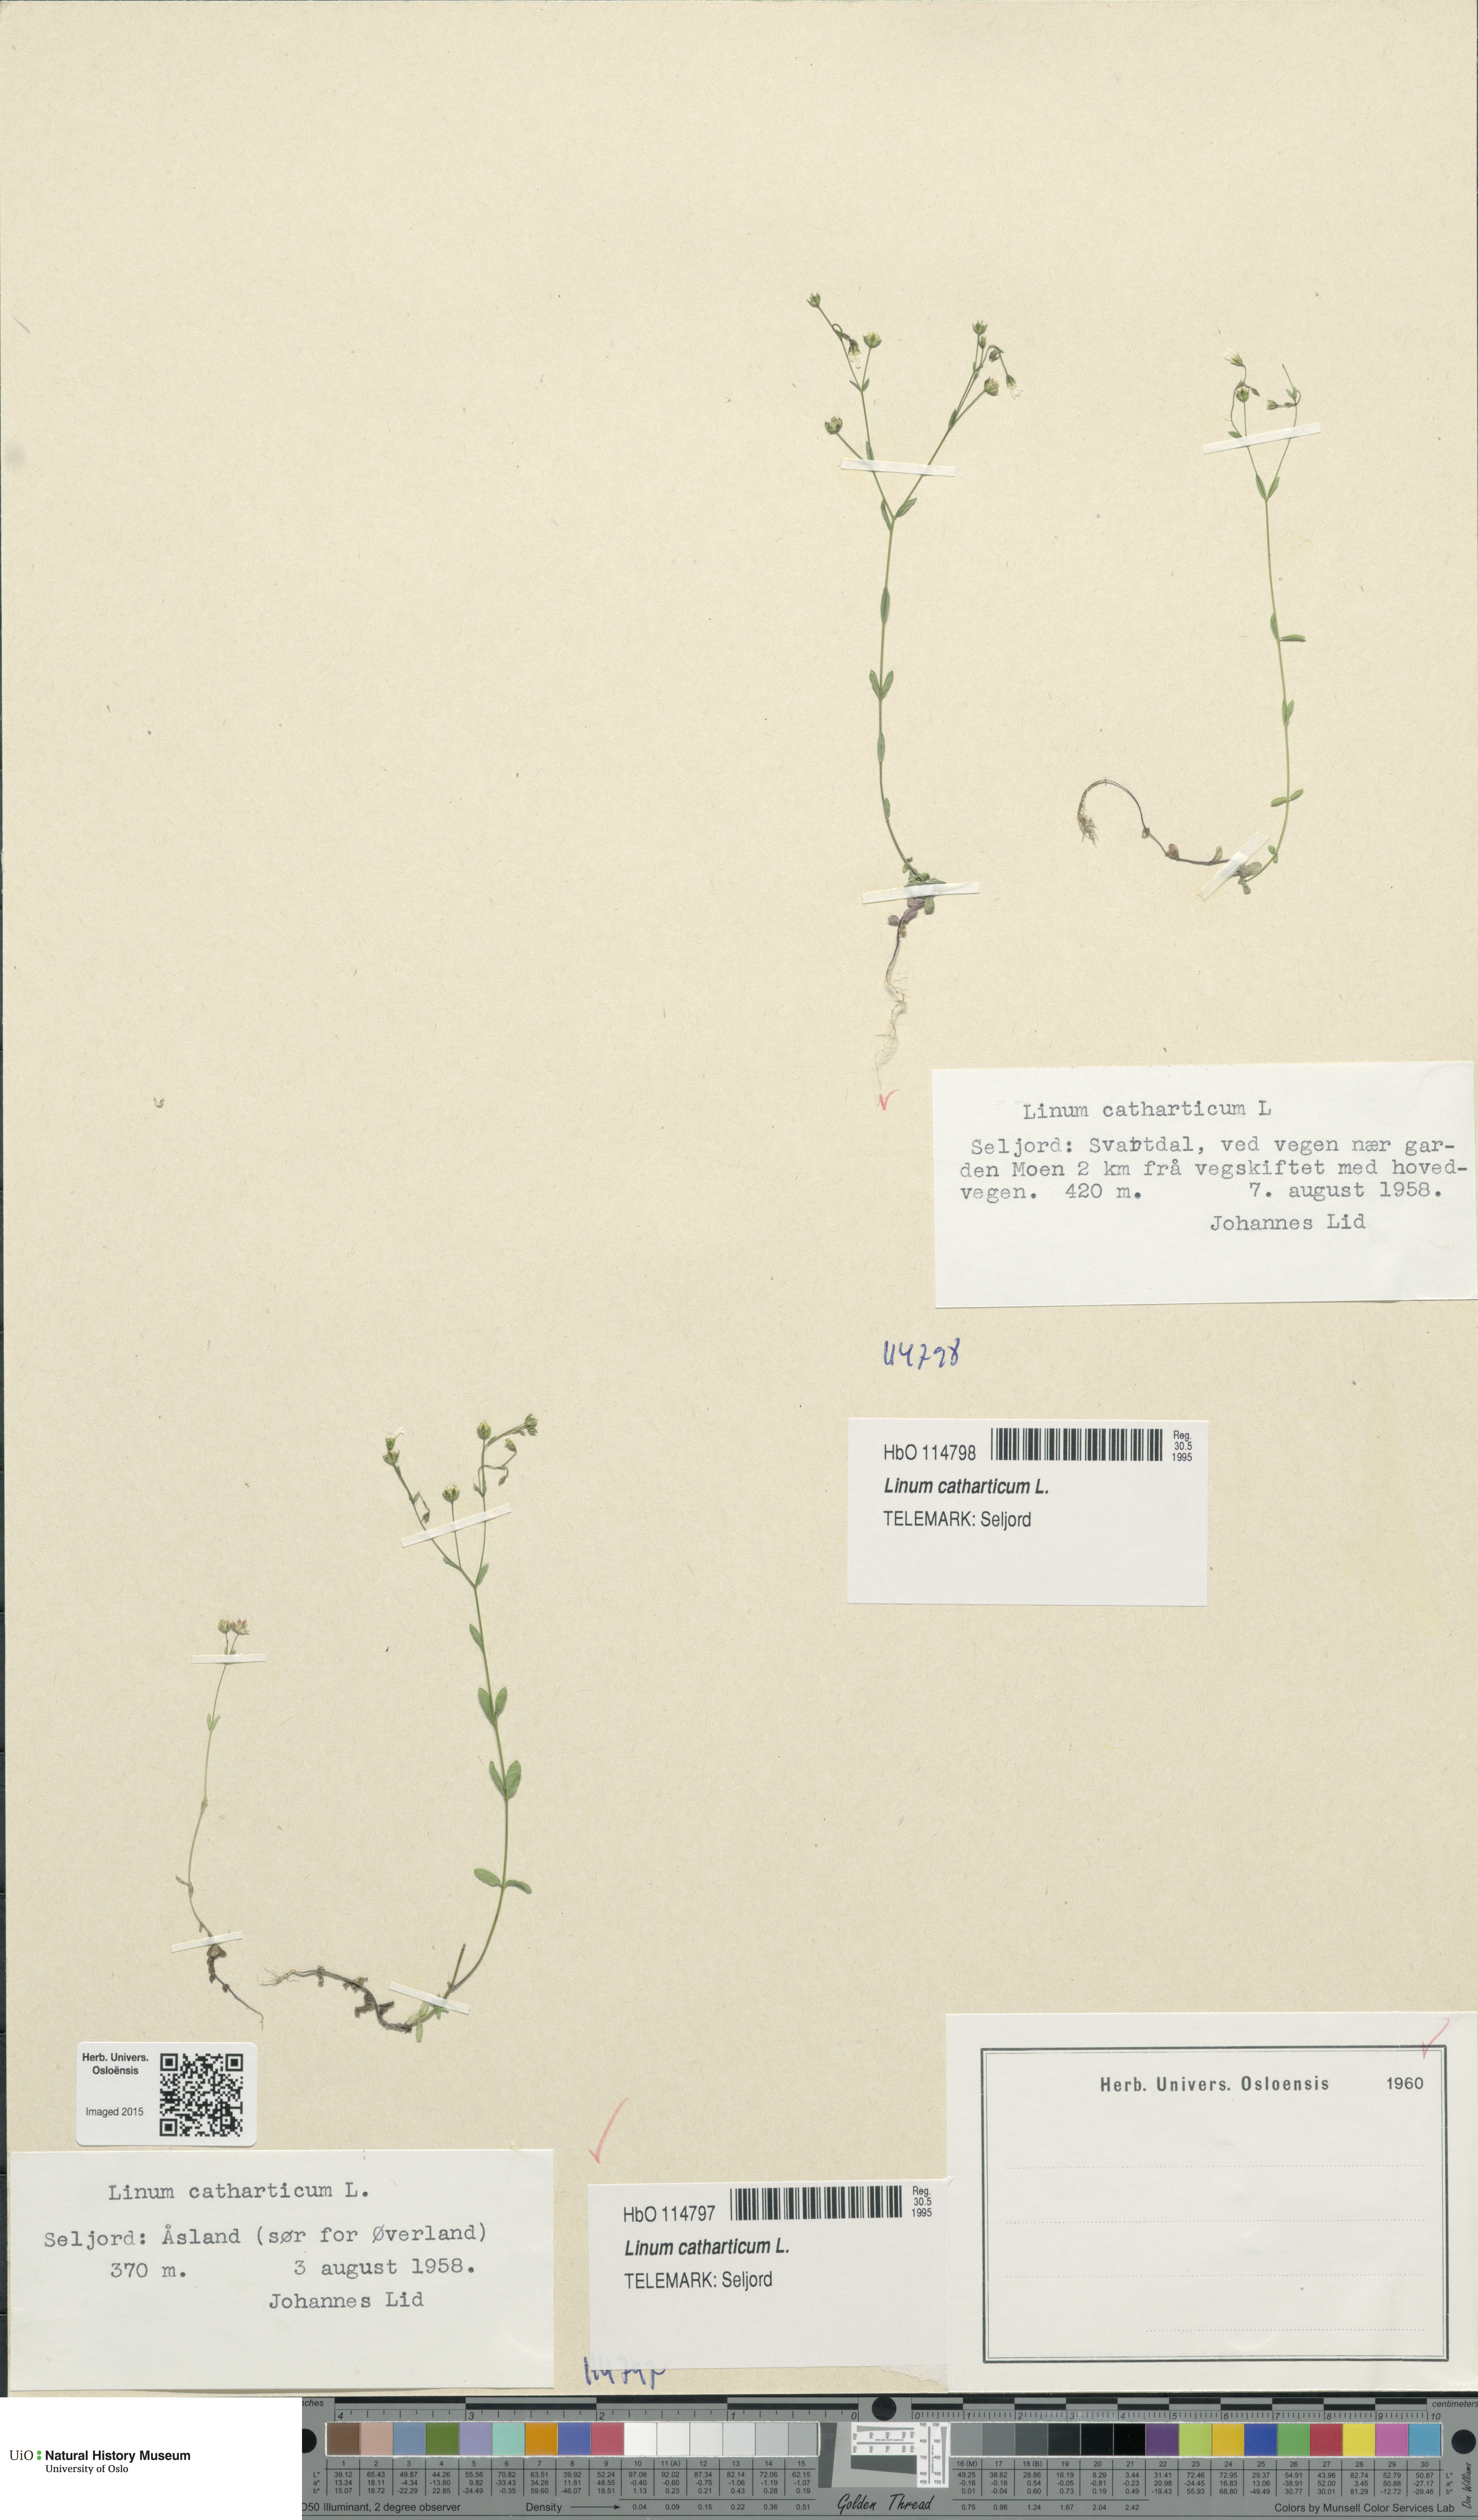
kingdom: Plantae
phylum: Tracheophyta
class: Magnoliopsida
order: Malpighiales
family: Linaceae
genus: Linum
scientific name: Linum catharticum
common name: Fairy flax
